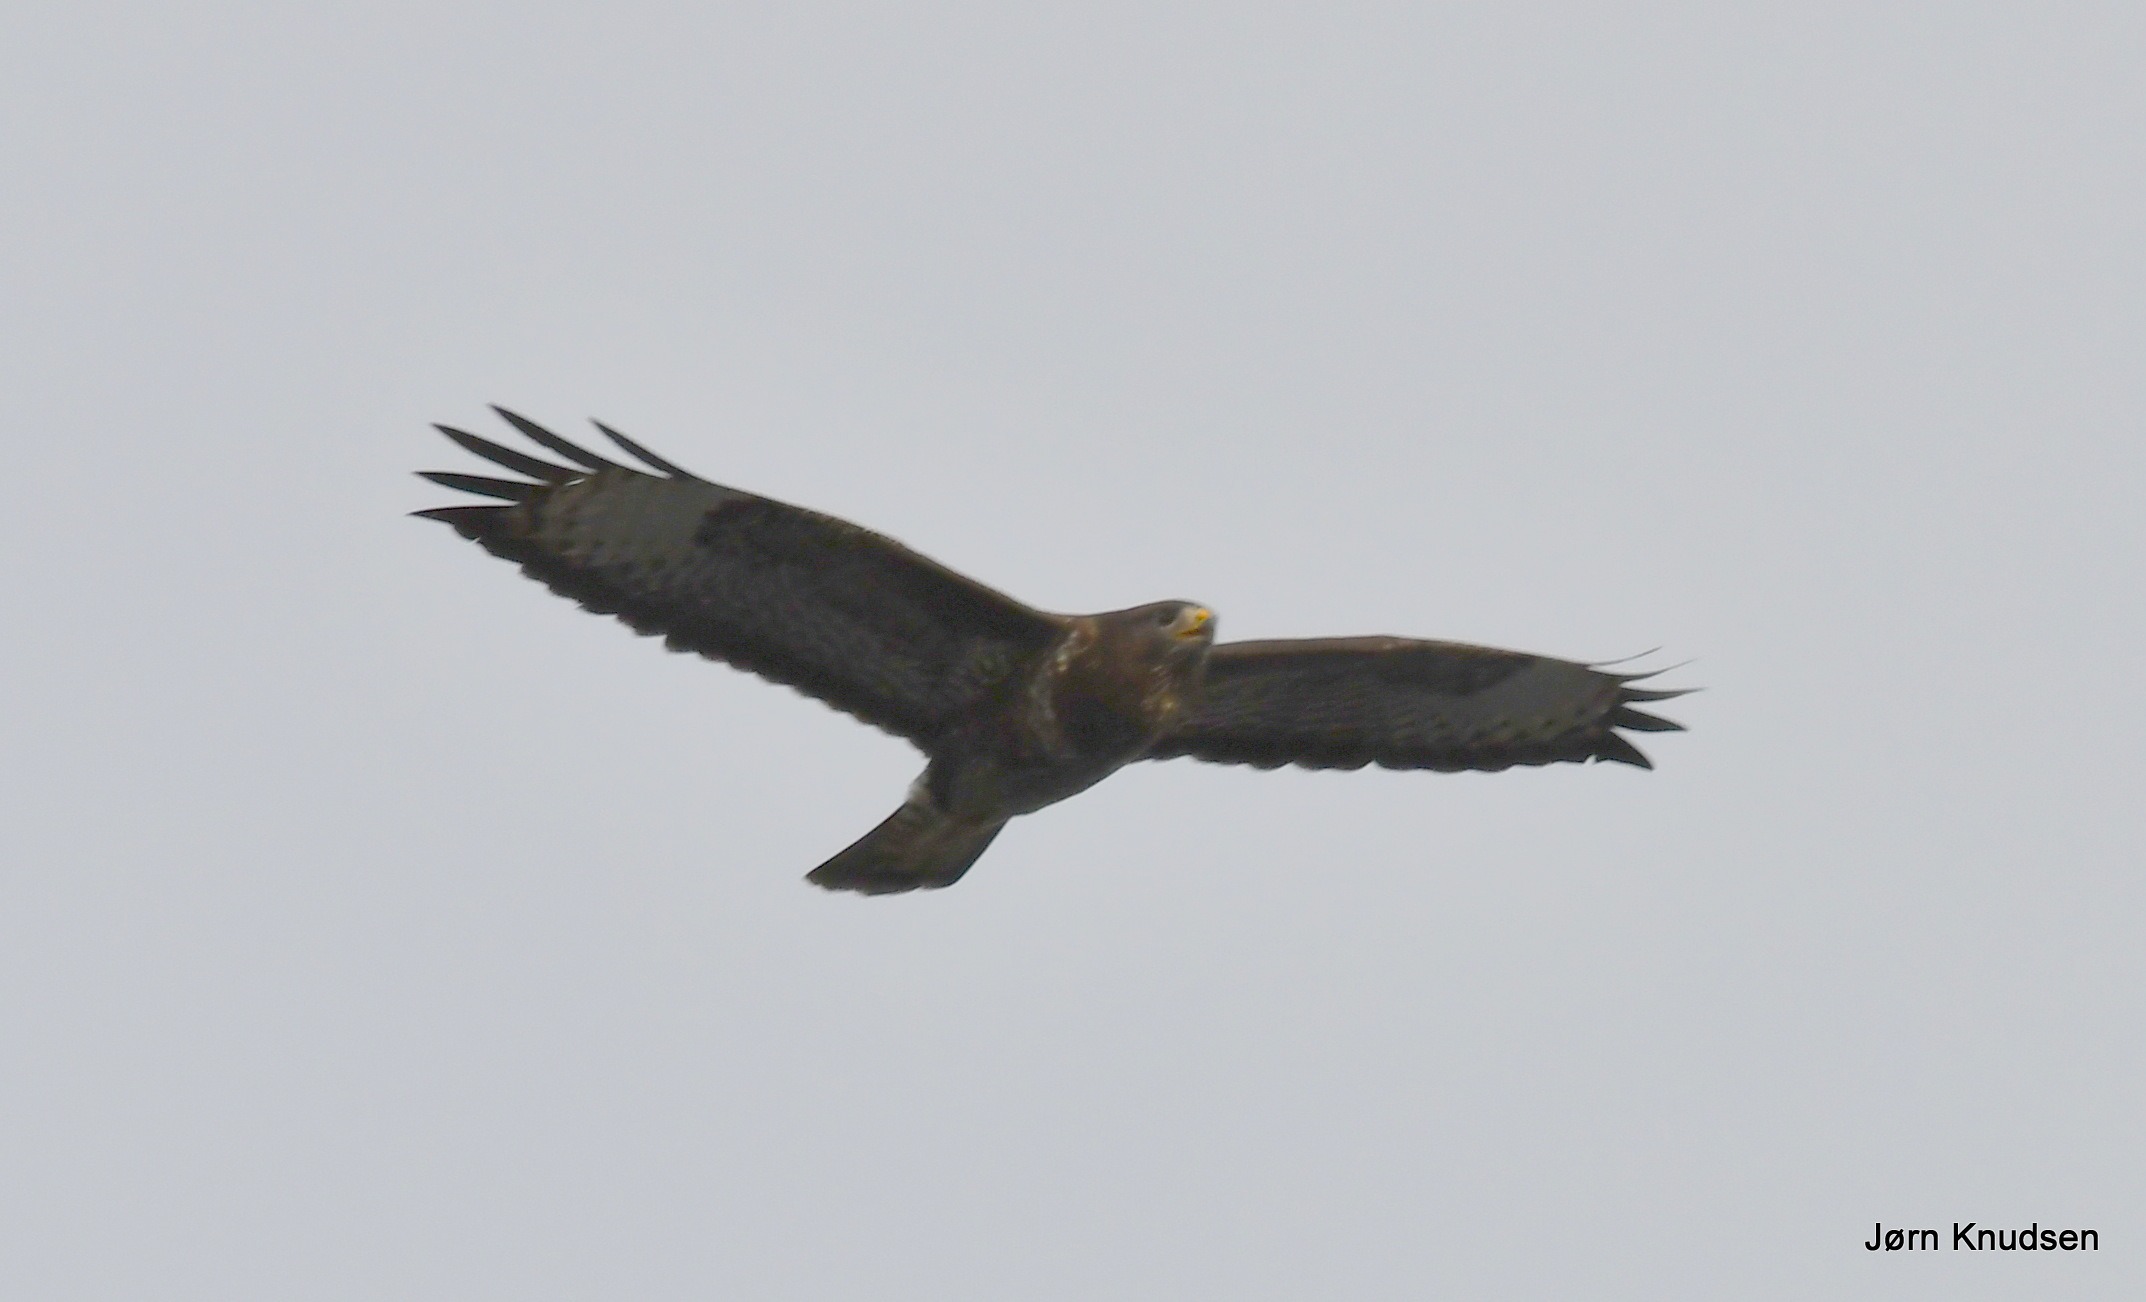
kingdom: Animalia
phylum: Chordata
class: Aves
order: Accipitriformes
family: Accipitridae
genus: Buteo
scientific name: Buteo buteo
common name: Musvåge
